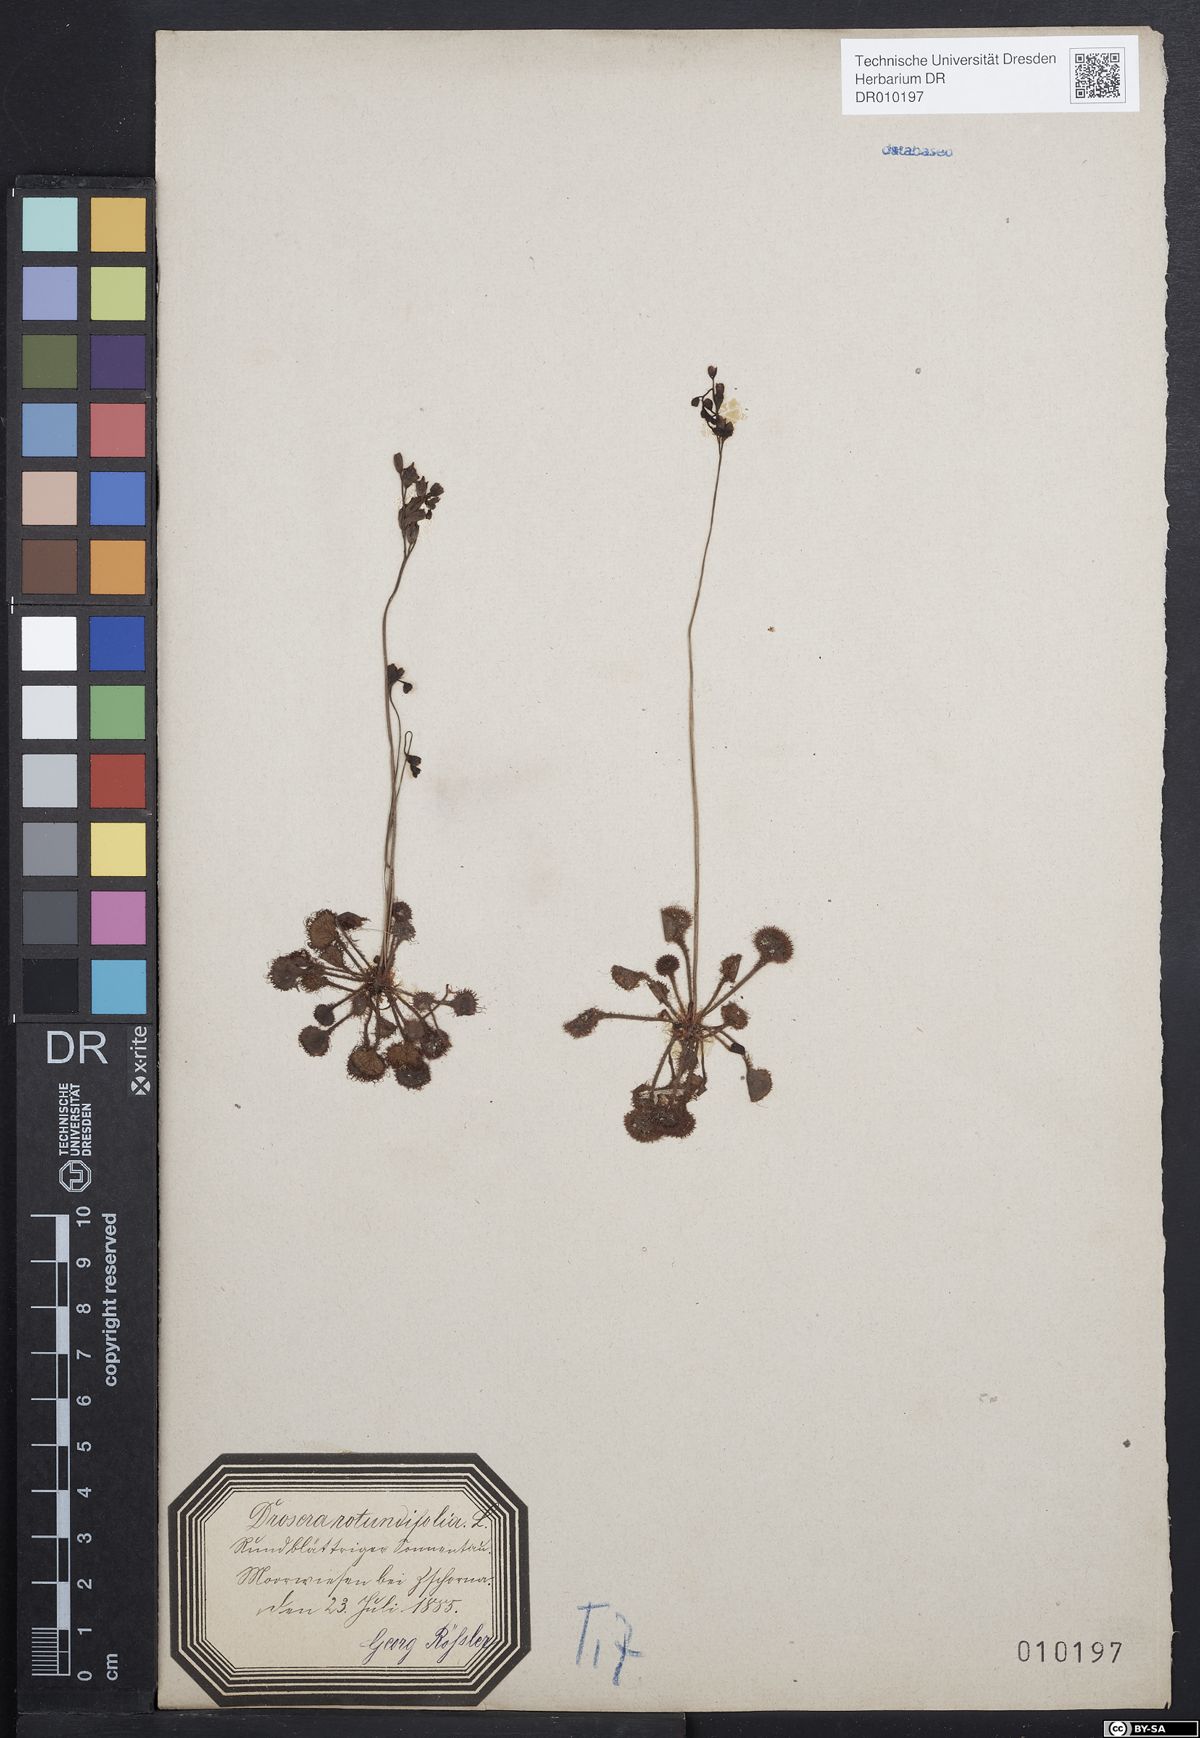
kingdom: Plantae
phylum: Tracheophyta
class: Magnoliopsida
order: Caryophyllales
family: Droseraceae
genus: Drosera
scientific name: Drosera rotundifolia
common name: Round-leaved sundew
